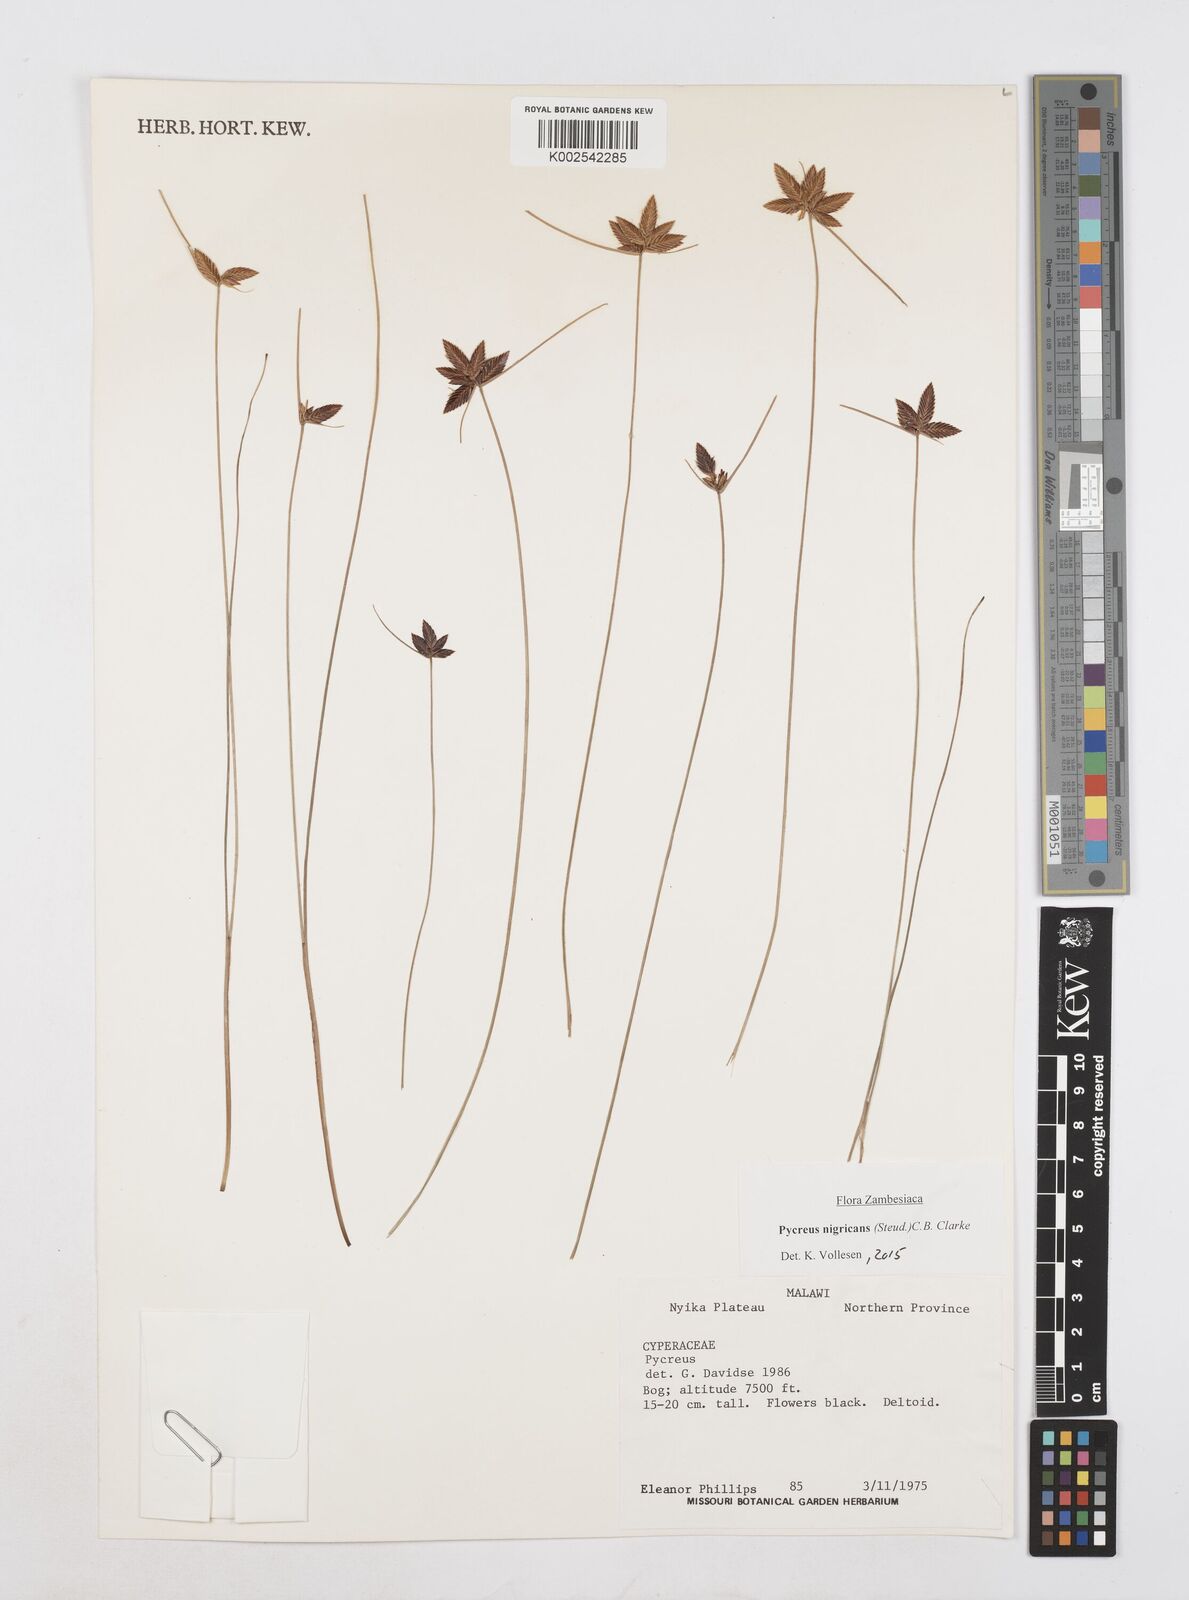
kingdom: Plantae
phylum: Tracheophyta
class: Liliopsida
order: Poales
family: Cyperaceae
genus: Cyperus
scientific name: Cyperus nigricans
